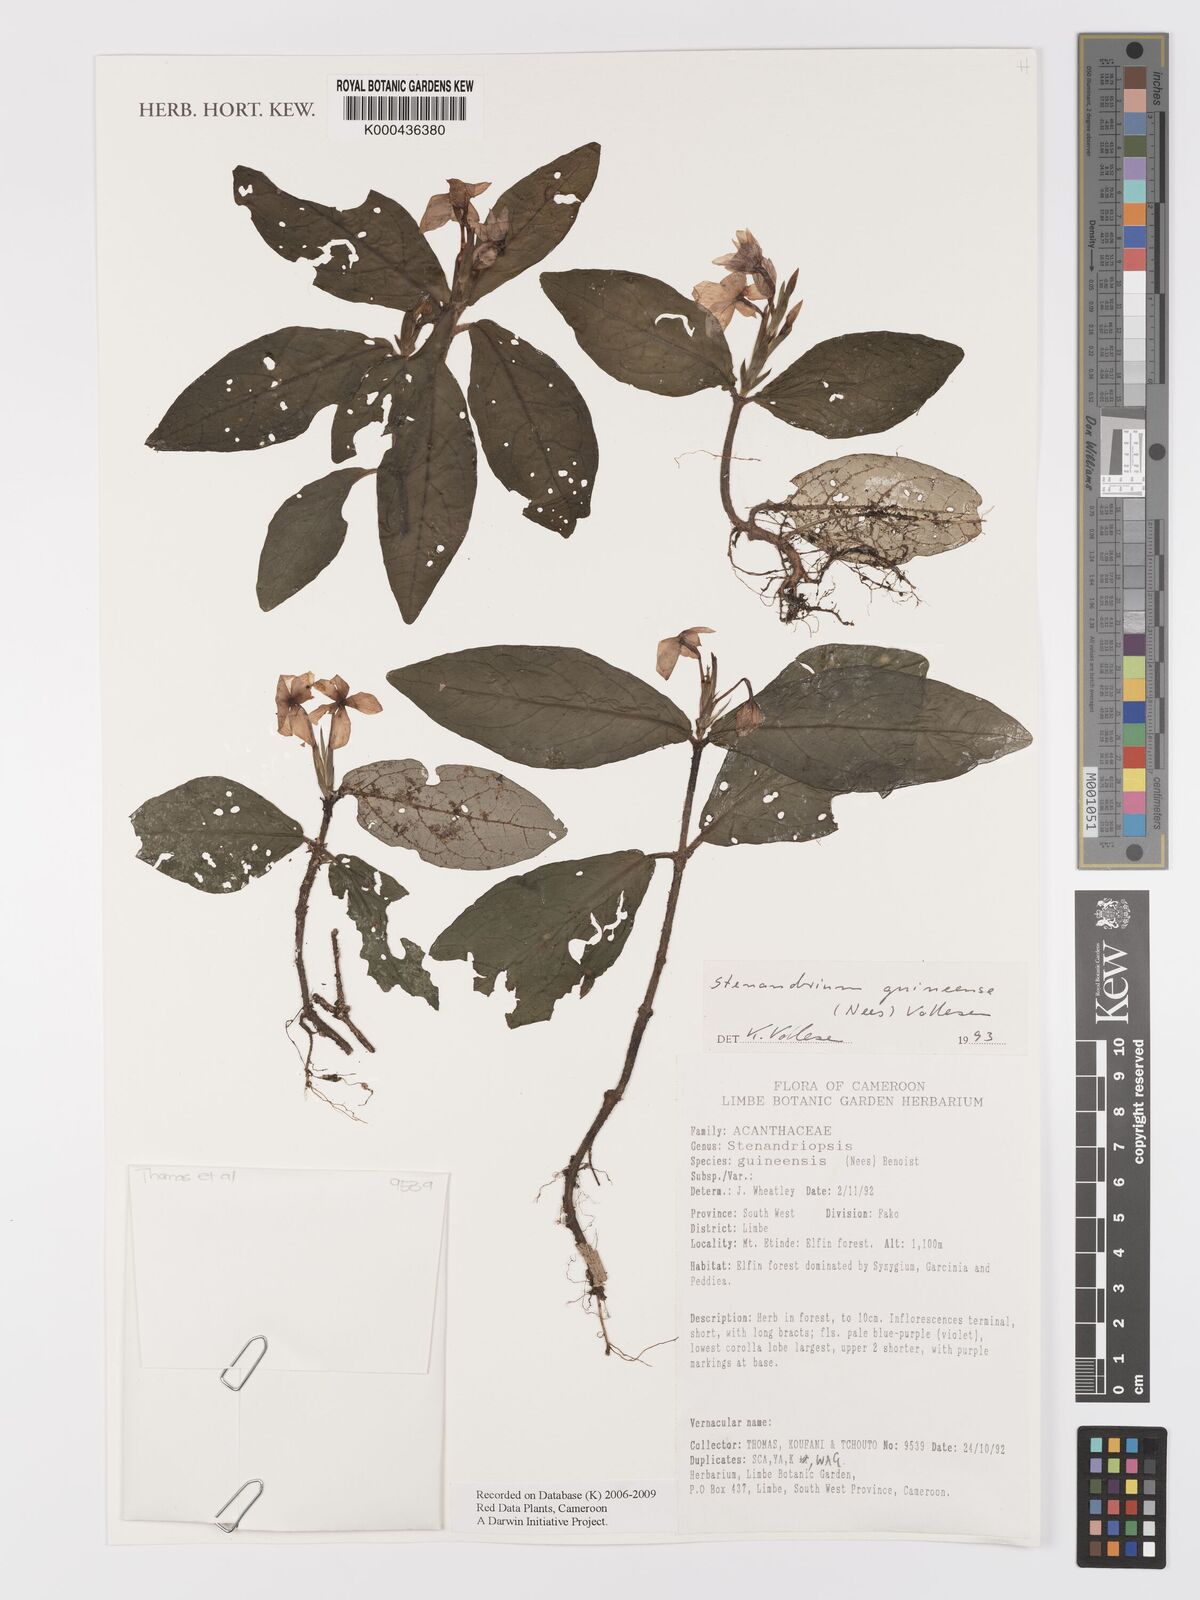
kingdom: Plantae
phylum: Tracheophyta
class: Magnoliopsida
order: Lamiales
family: Acanthaceae
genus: Stenandriopsis
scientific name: Stenandriopsis guineensis
